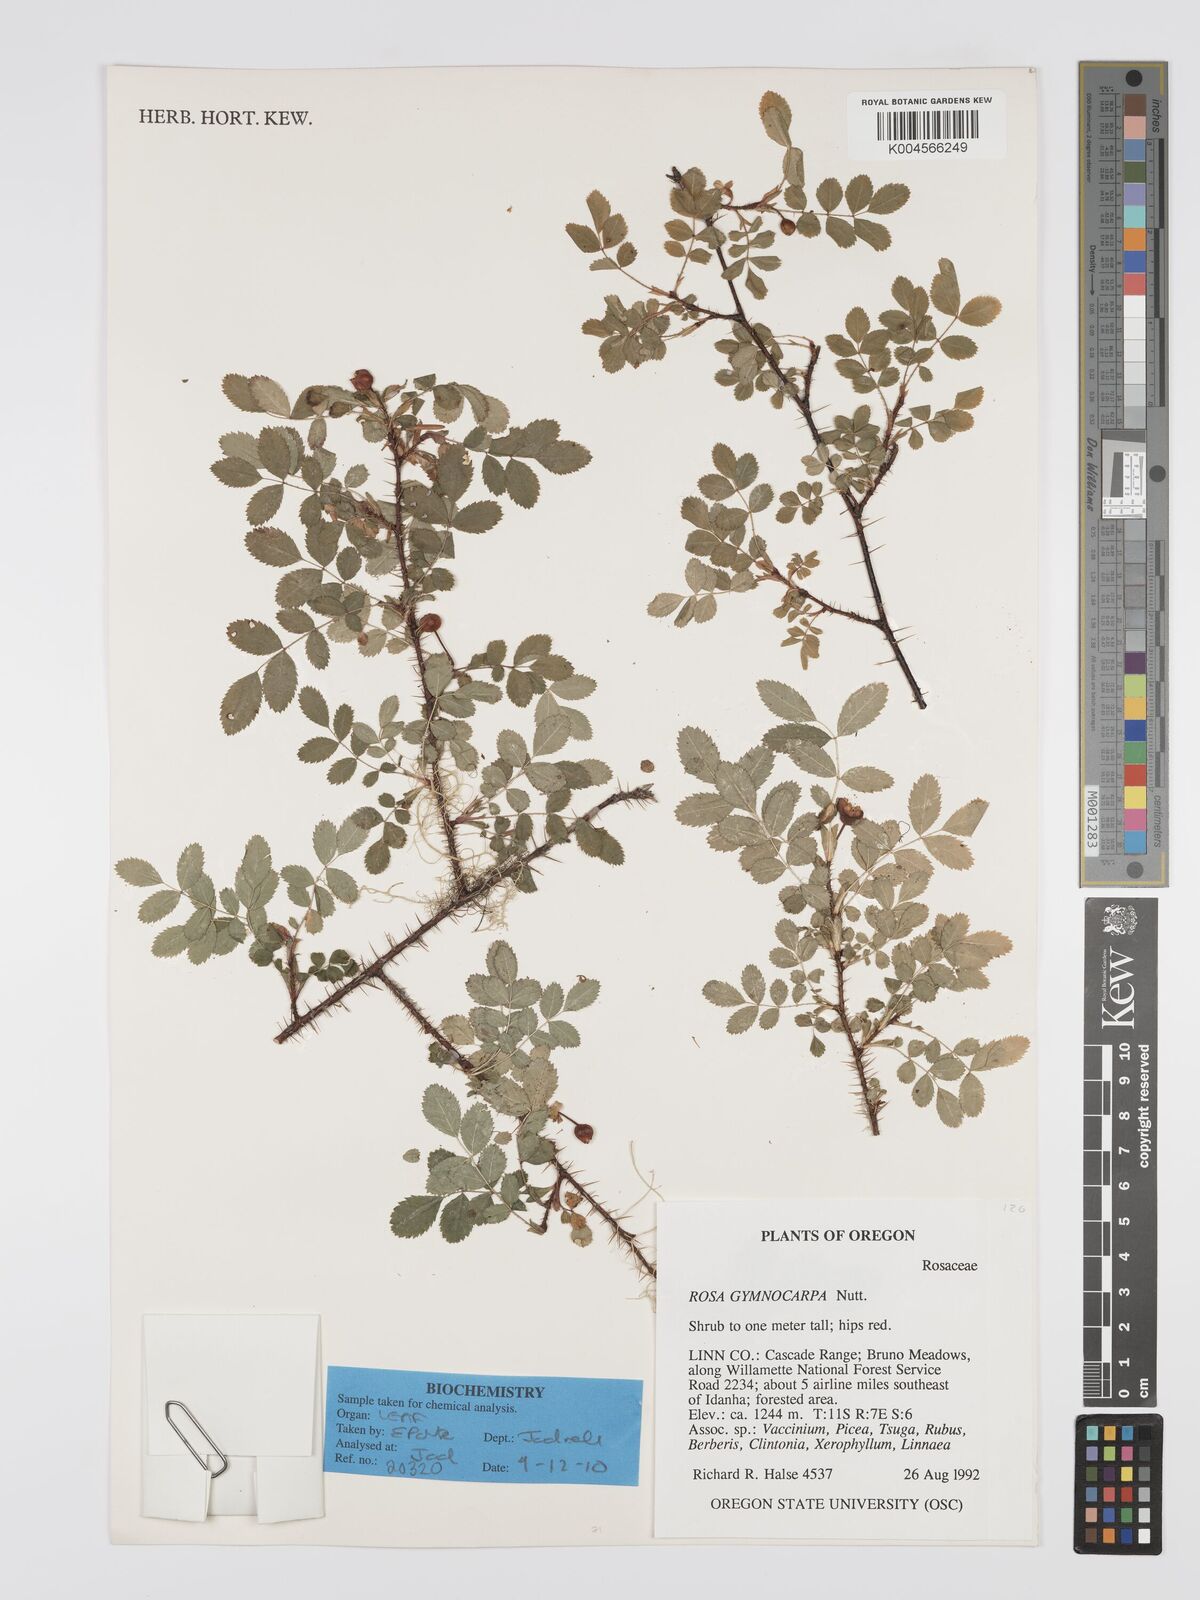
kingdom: Plantae
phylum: Tracheophyta
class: Magnoliopsida
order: Rosales
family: Rosaceae
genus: Rosa
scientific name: Rosa gymnocarpa
